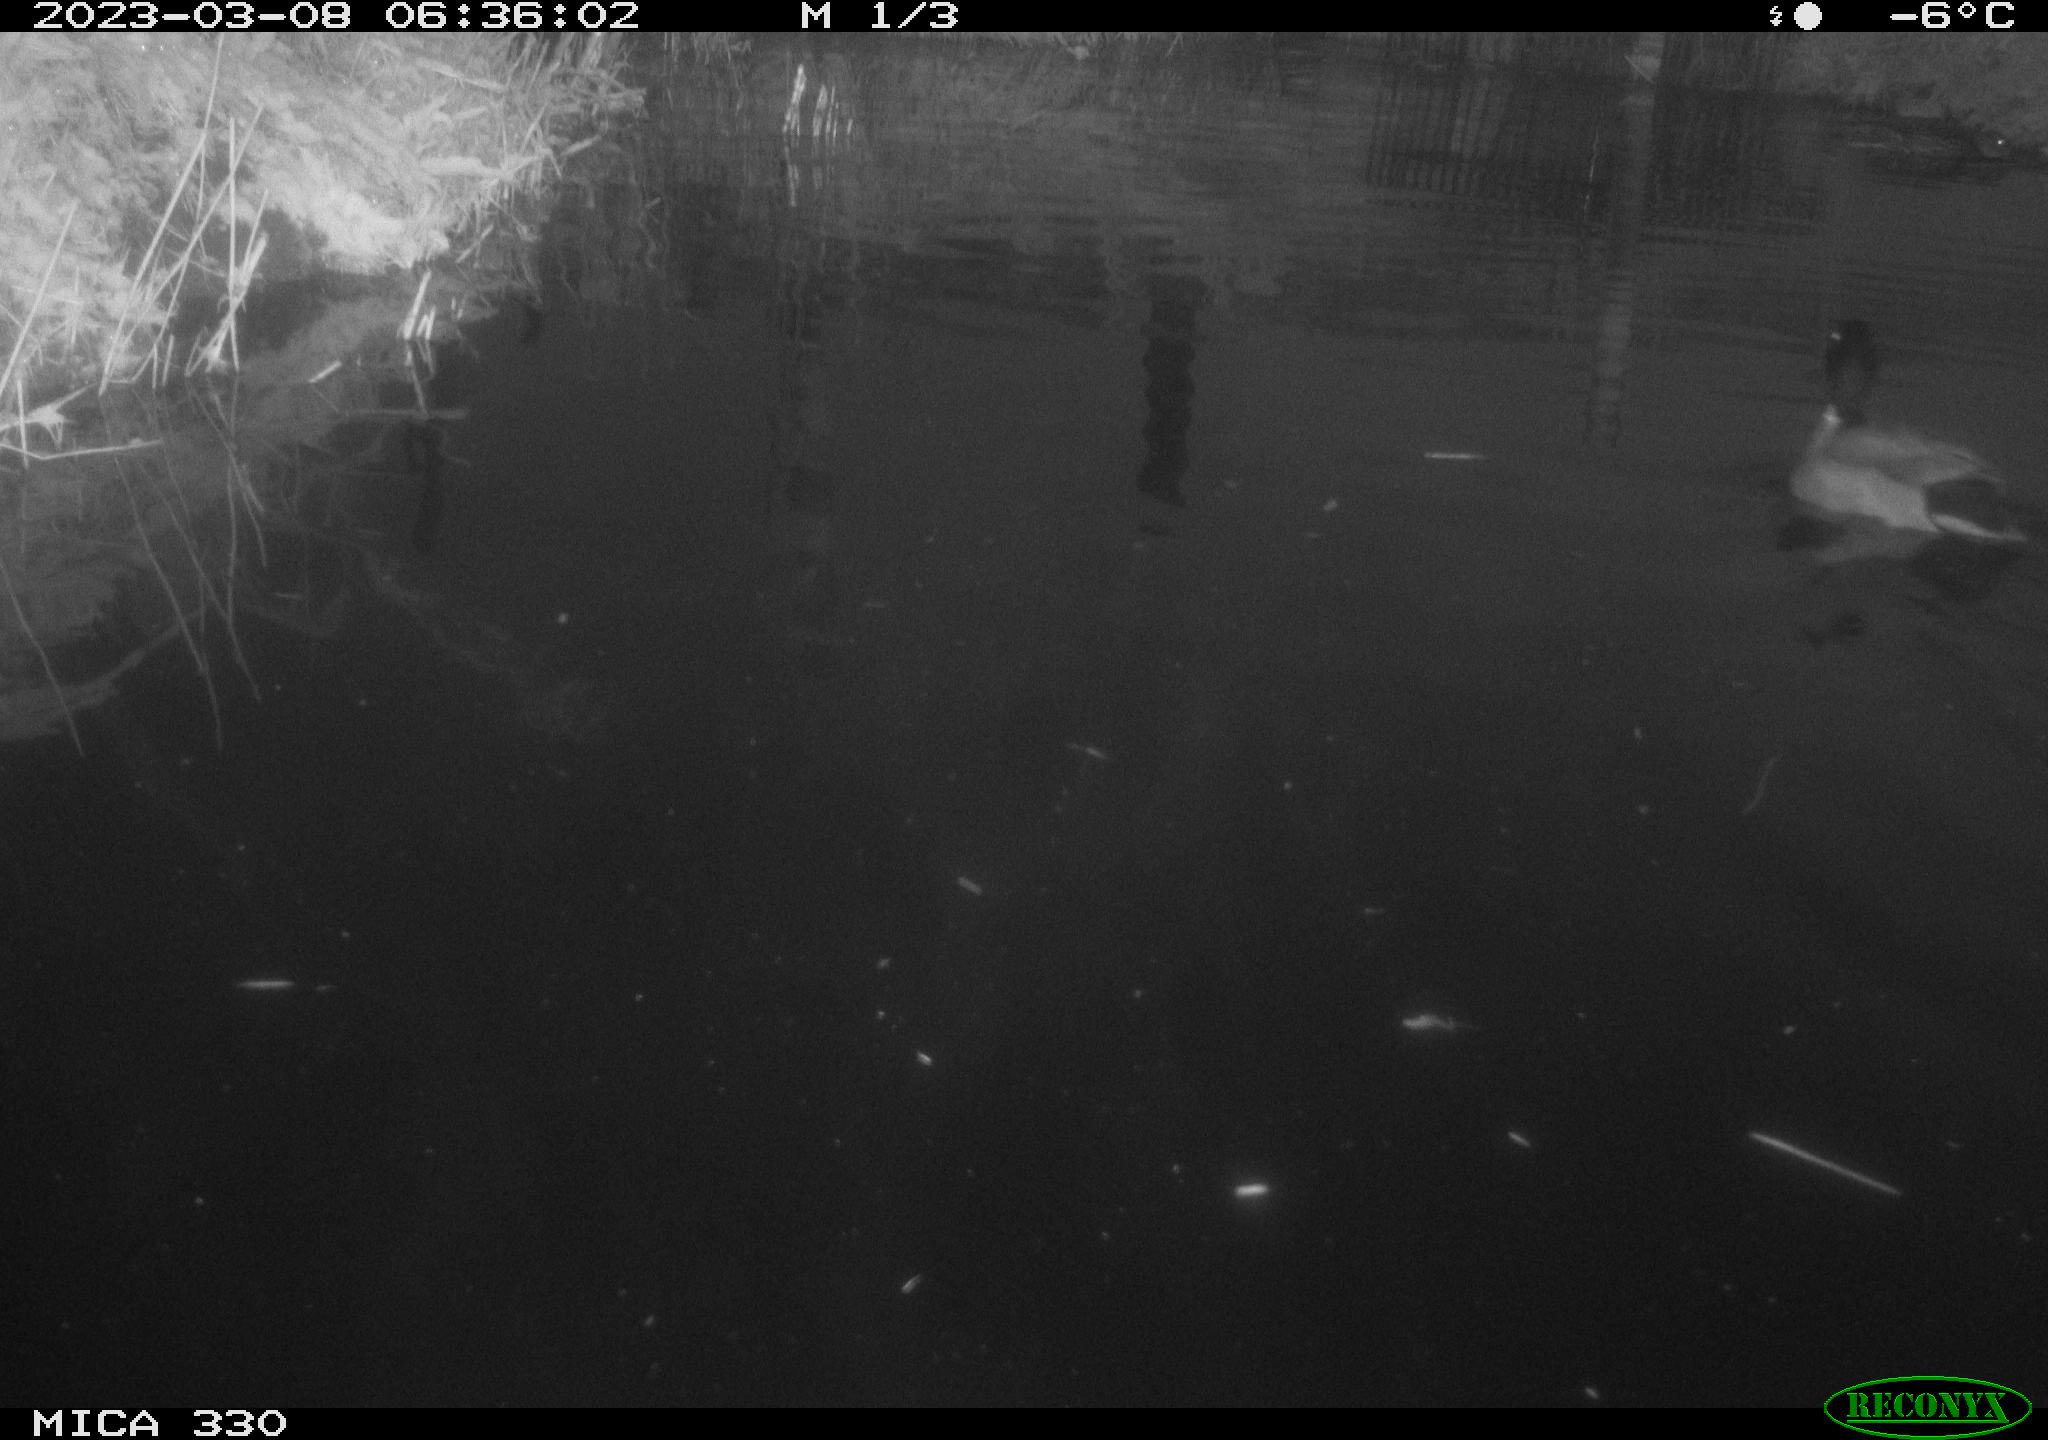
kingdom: Animalia
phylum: Chordata
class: Aves
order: Anseriformes
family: Anatidae
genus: Anas
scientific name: Anas
